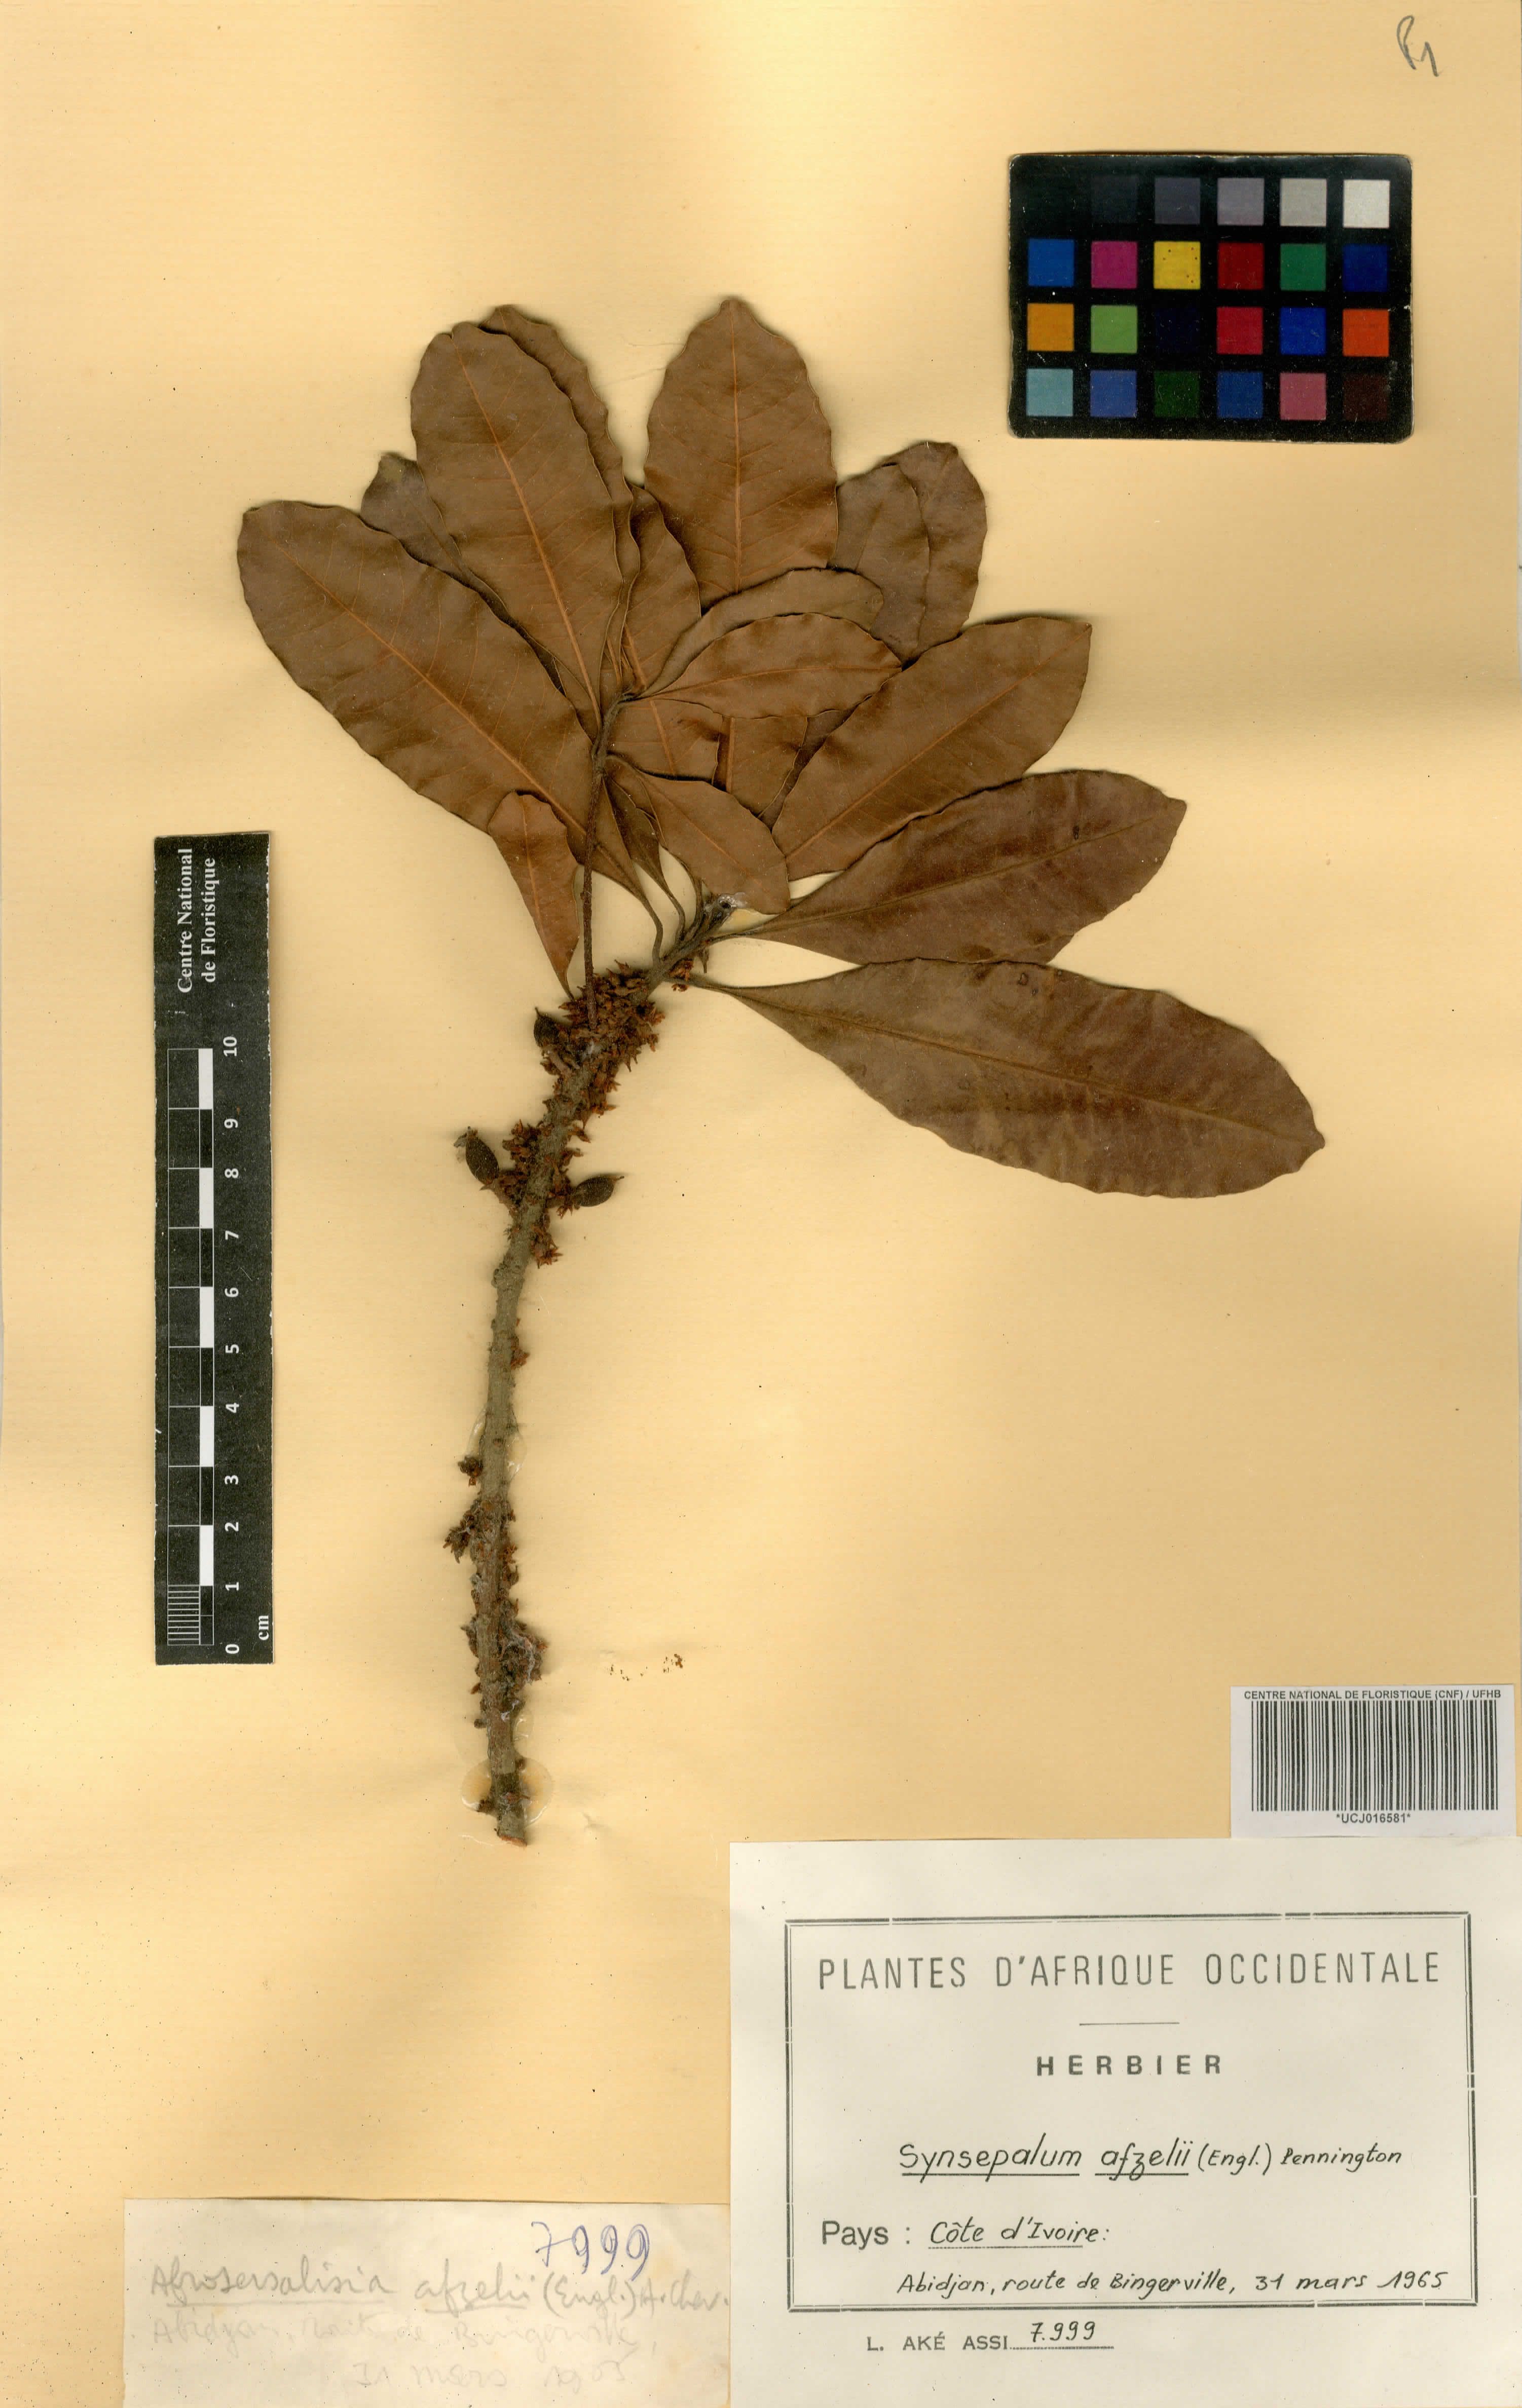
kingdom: Plantae
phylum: Tracheophyta
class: Magnoliopsida
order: Ericales
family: Sapotaceae
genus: Synsepalum
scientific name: Synsepalum afzelii
